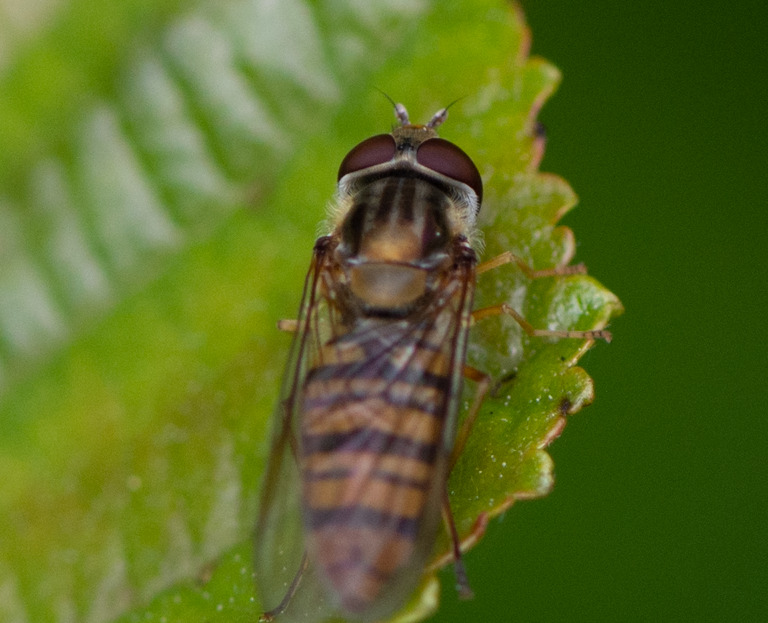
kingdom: Animalia
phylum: Arthropoda
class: Insecta
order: Diptera
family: Syrphidae
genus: Episyrphus
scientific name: Episyrphus balteatus
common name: Dobbeltbåndet svirreflue
